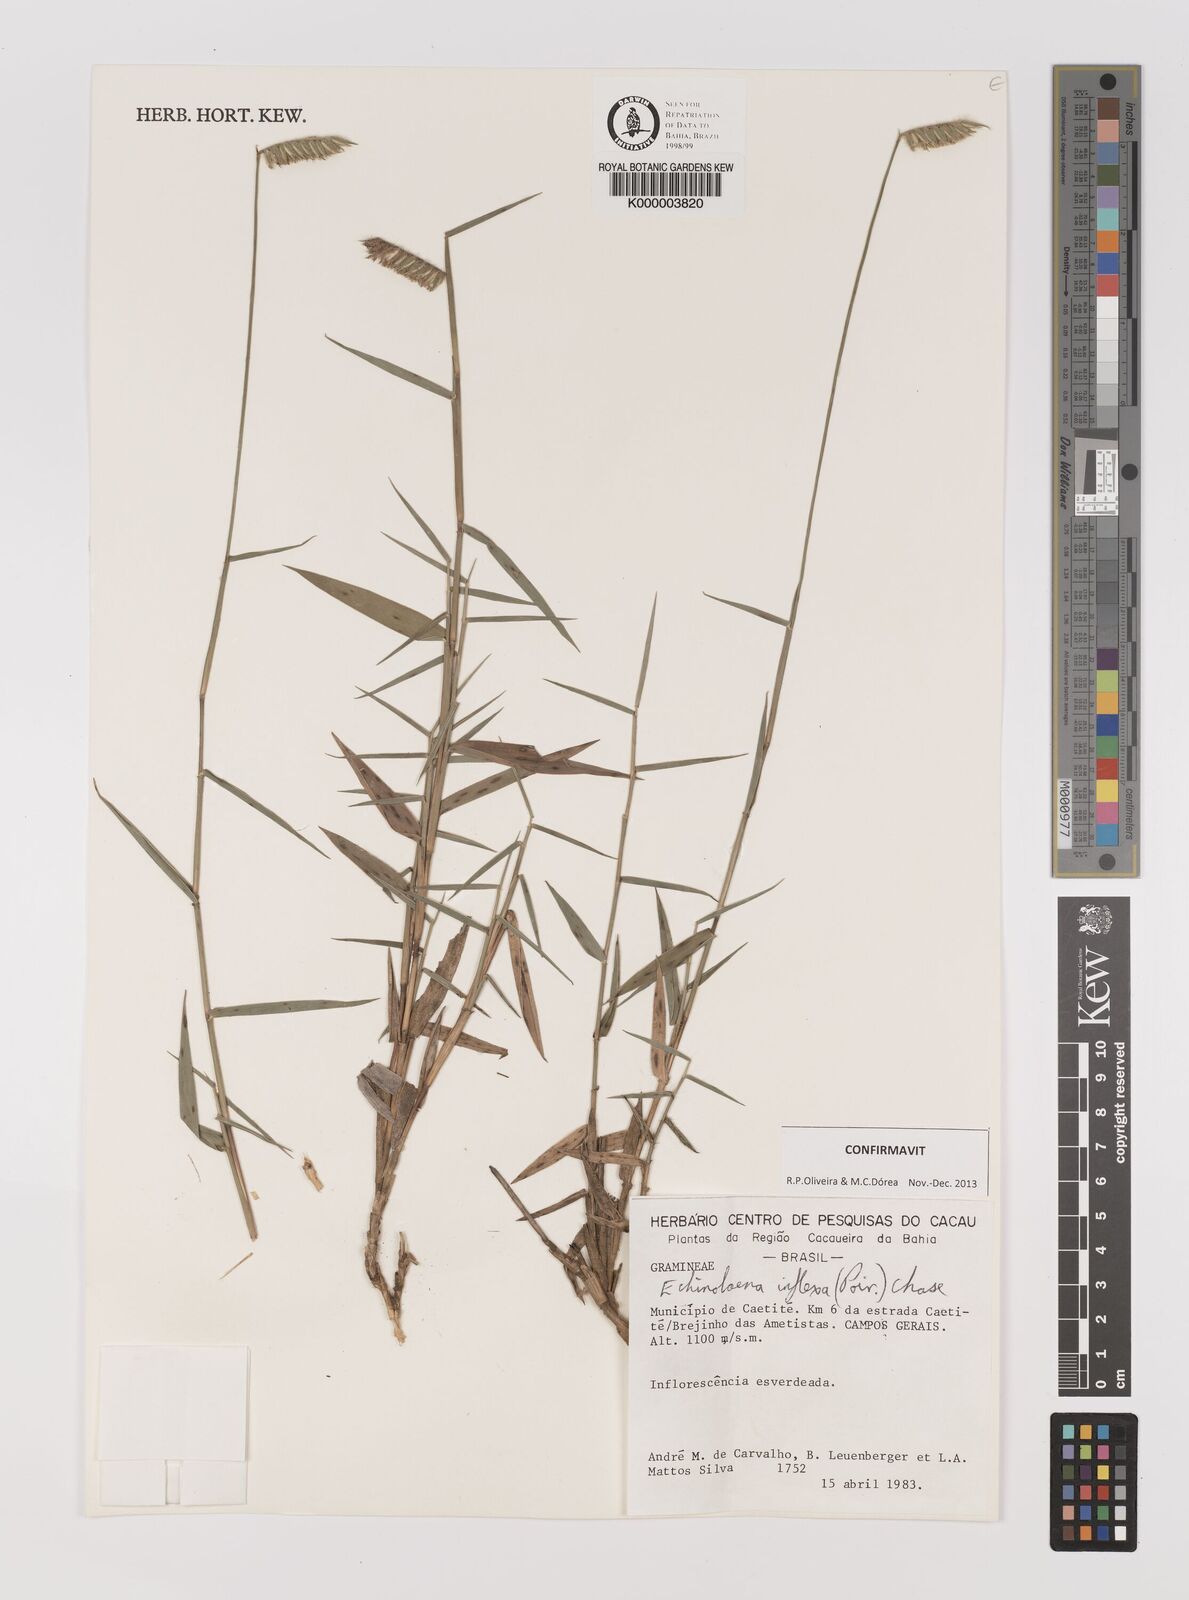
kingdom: Plantae
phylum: Tracheophyta
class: Liliopsida
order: Poales
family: Poaceae
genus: Echinolaena
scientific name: Echinolaena inflexa
